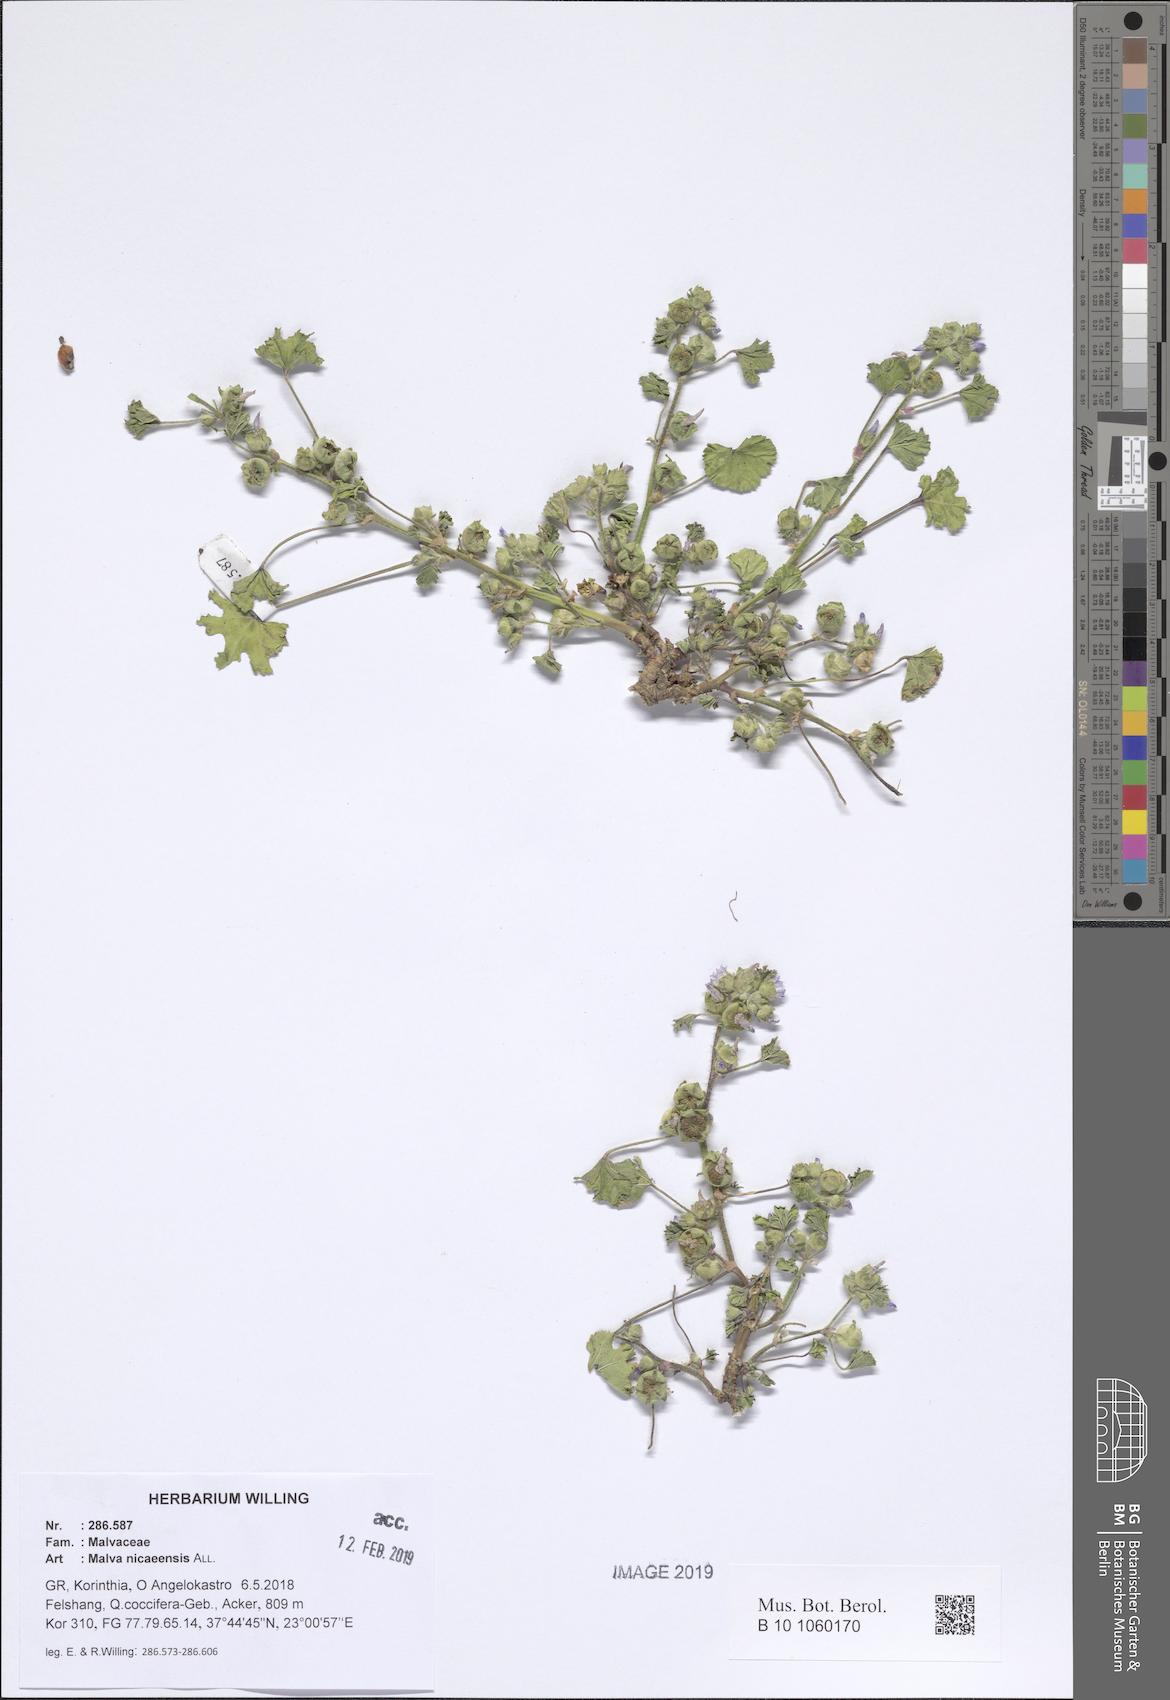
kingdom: Plantae
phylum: Tracheophyta
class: Magnoliopsida
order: Malvales
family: Malvaceae
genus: Malva
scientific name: Malva nicaeensis
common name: French mallow
